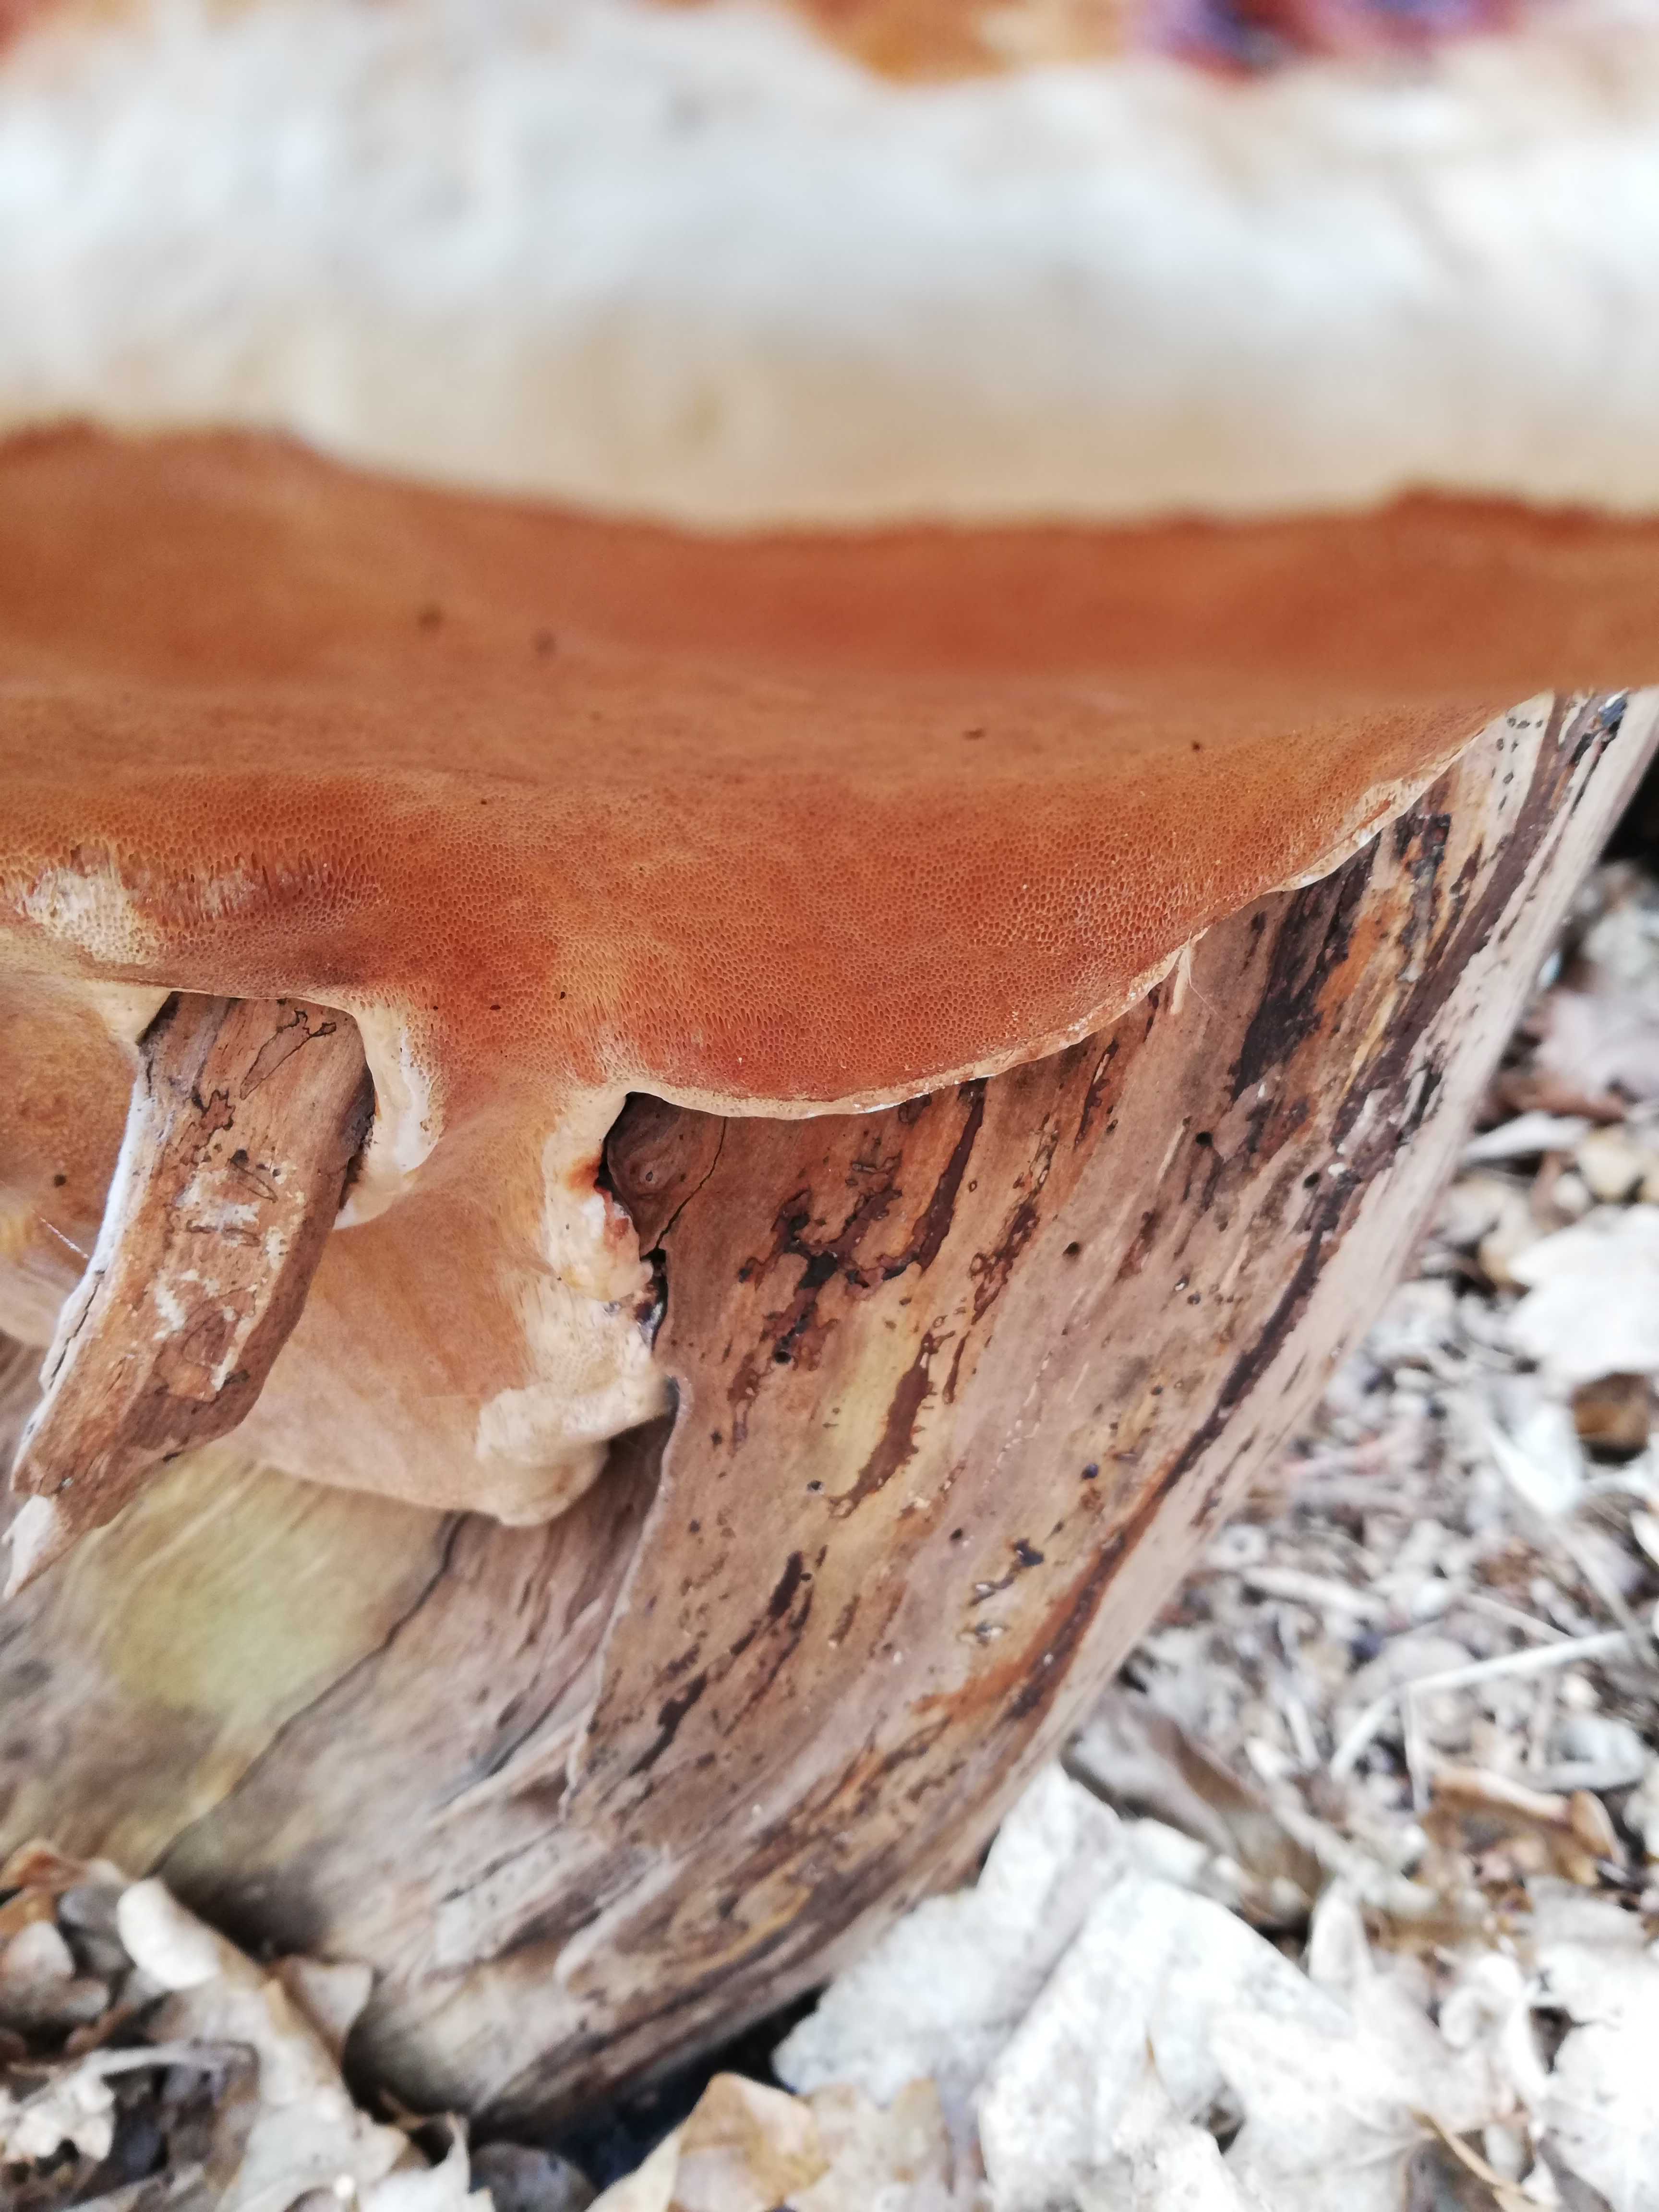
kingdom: Fungi
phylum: Basidiomycota
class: Agaricomycetes
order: Polyporales
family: Fomitopsidaceae
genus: Fomitopsis
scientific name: Fomitopsis pinicola
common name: randbæltet hovporesvamp
